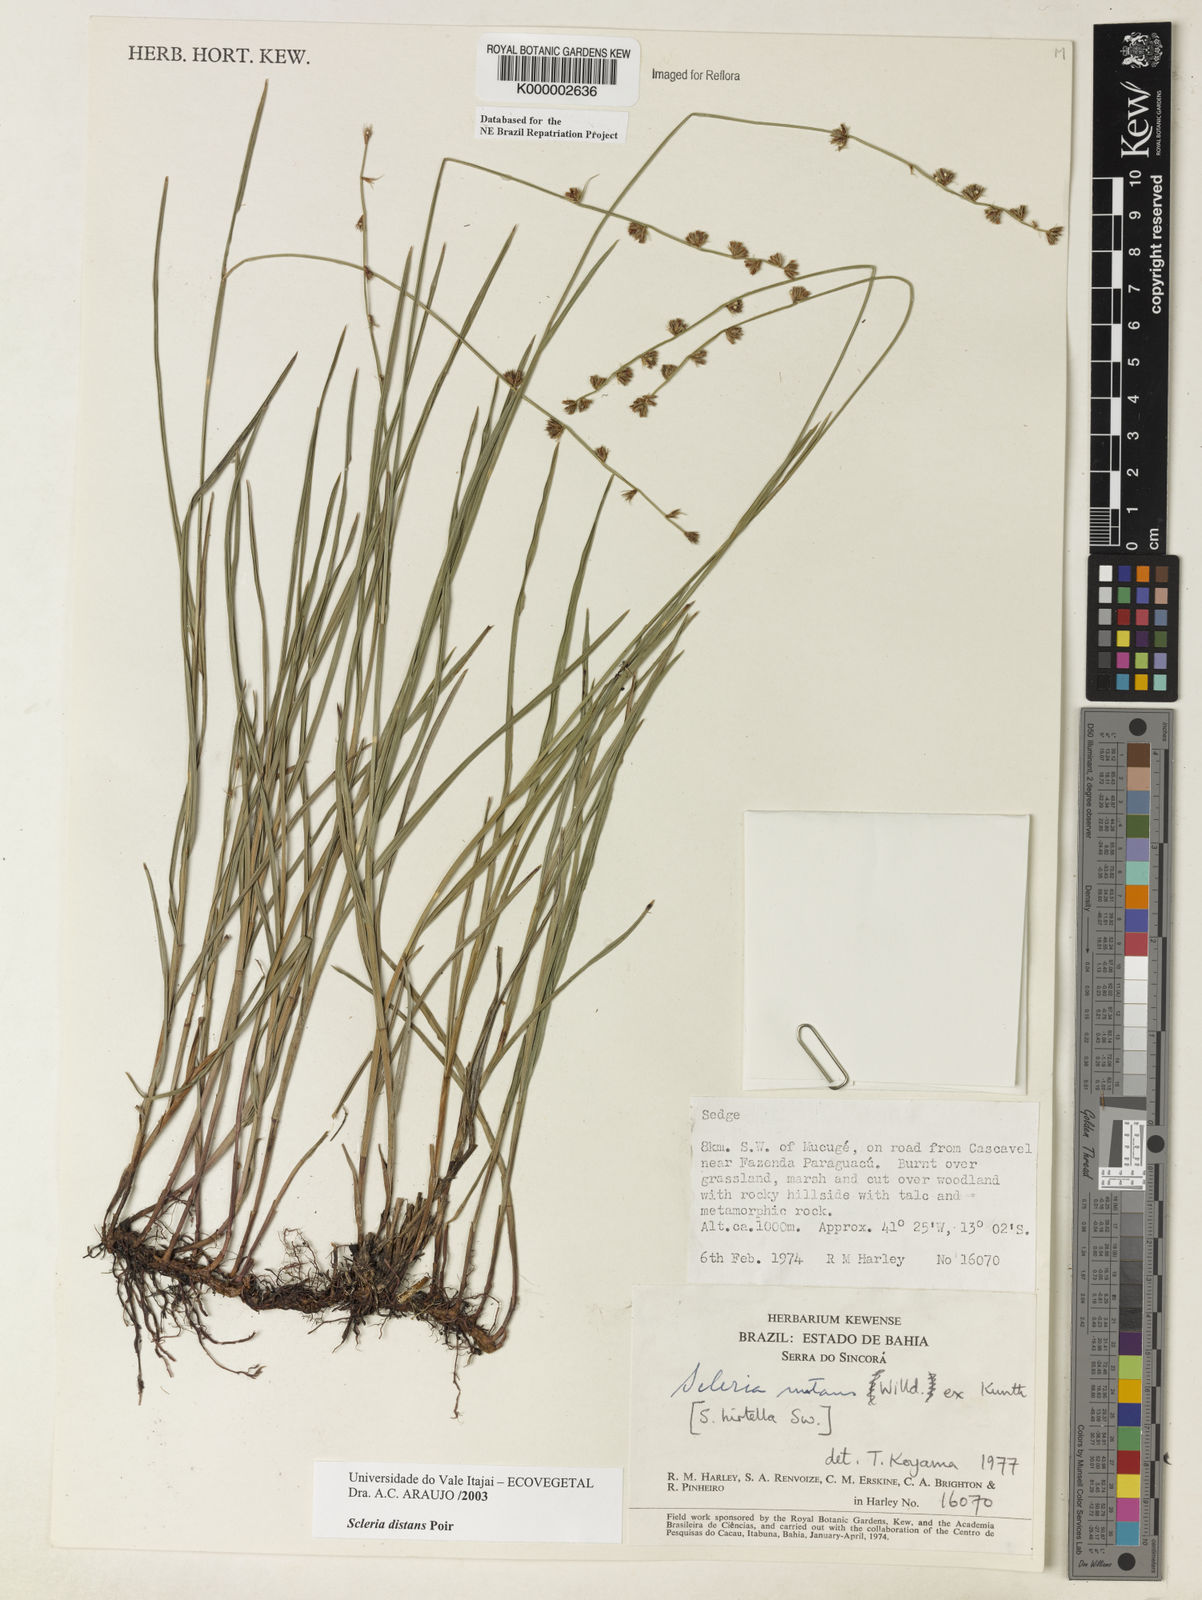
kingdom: Plantae
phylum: Tracheophyta
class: Liliopsida
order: Poales
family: Cyperaceae
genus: Scleria
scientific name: Scleria distans
